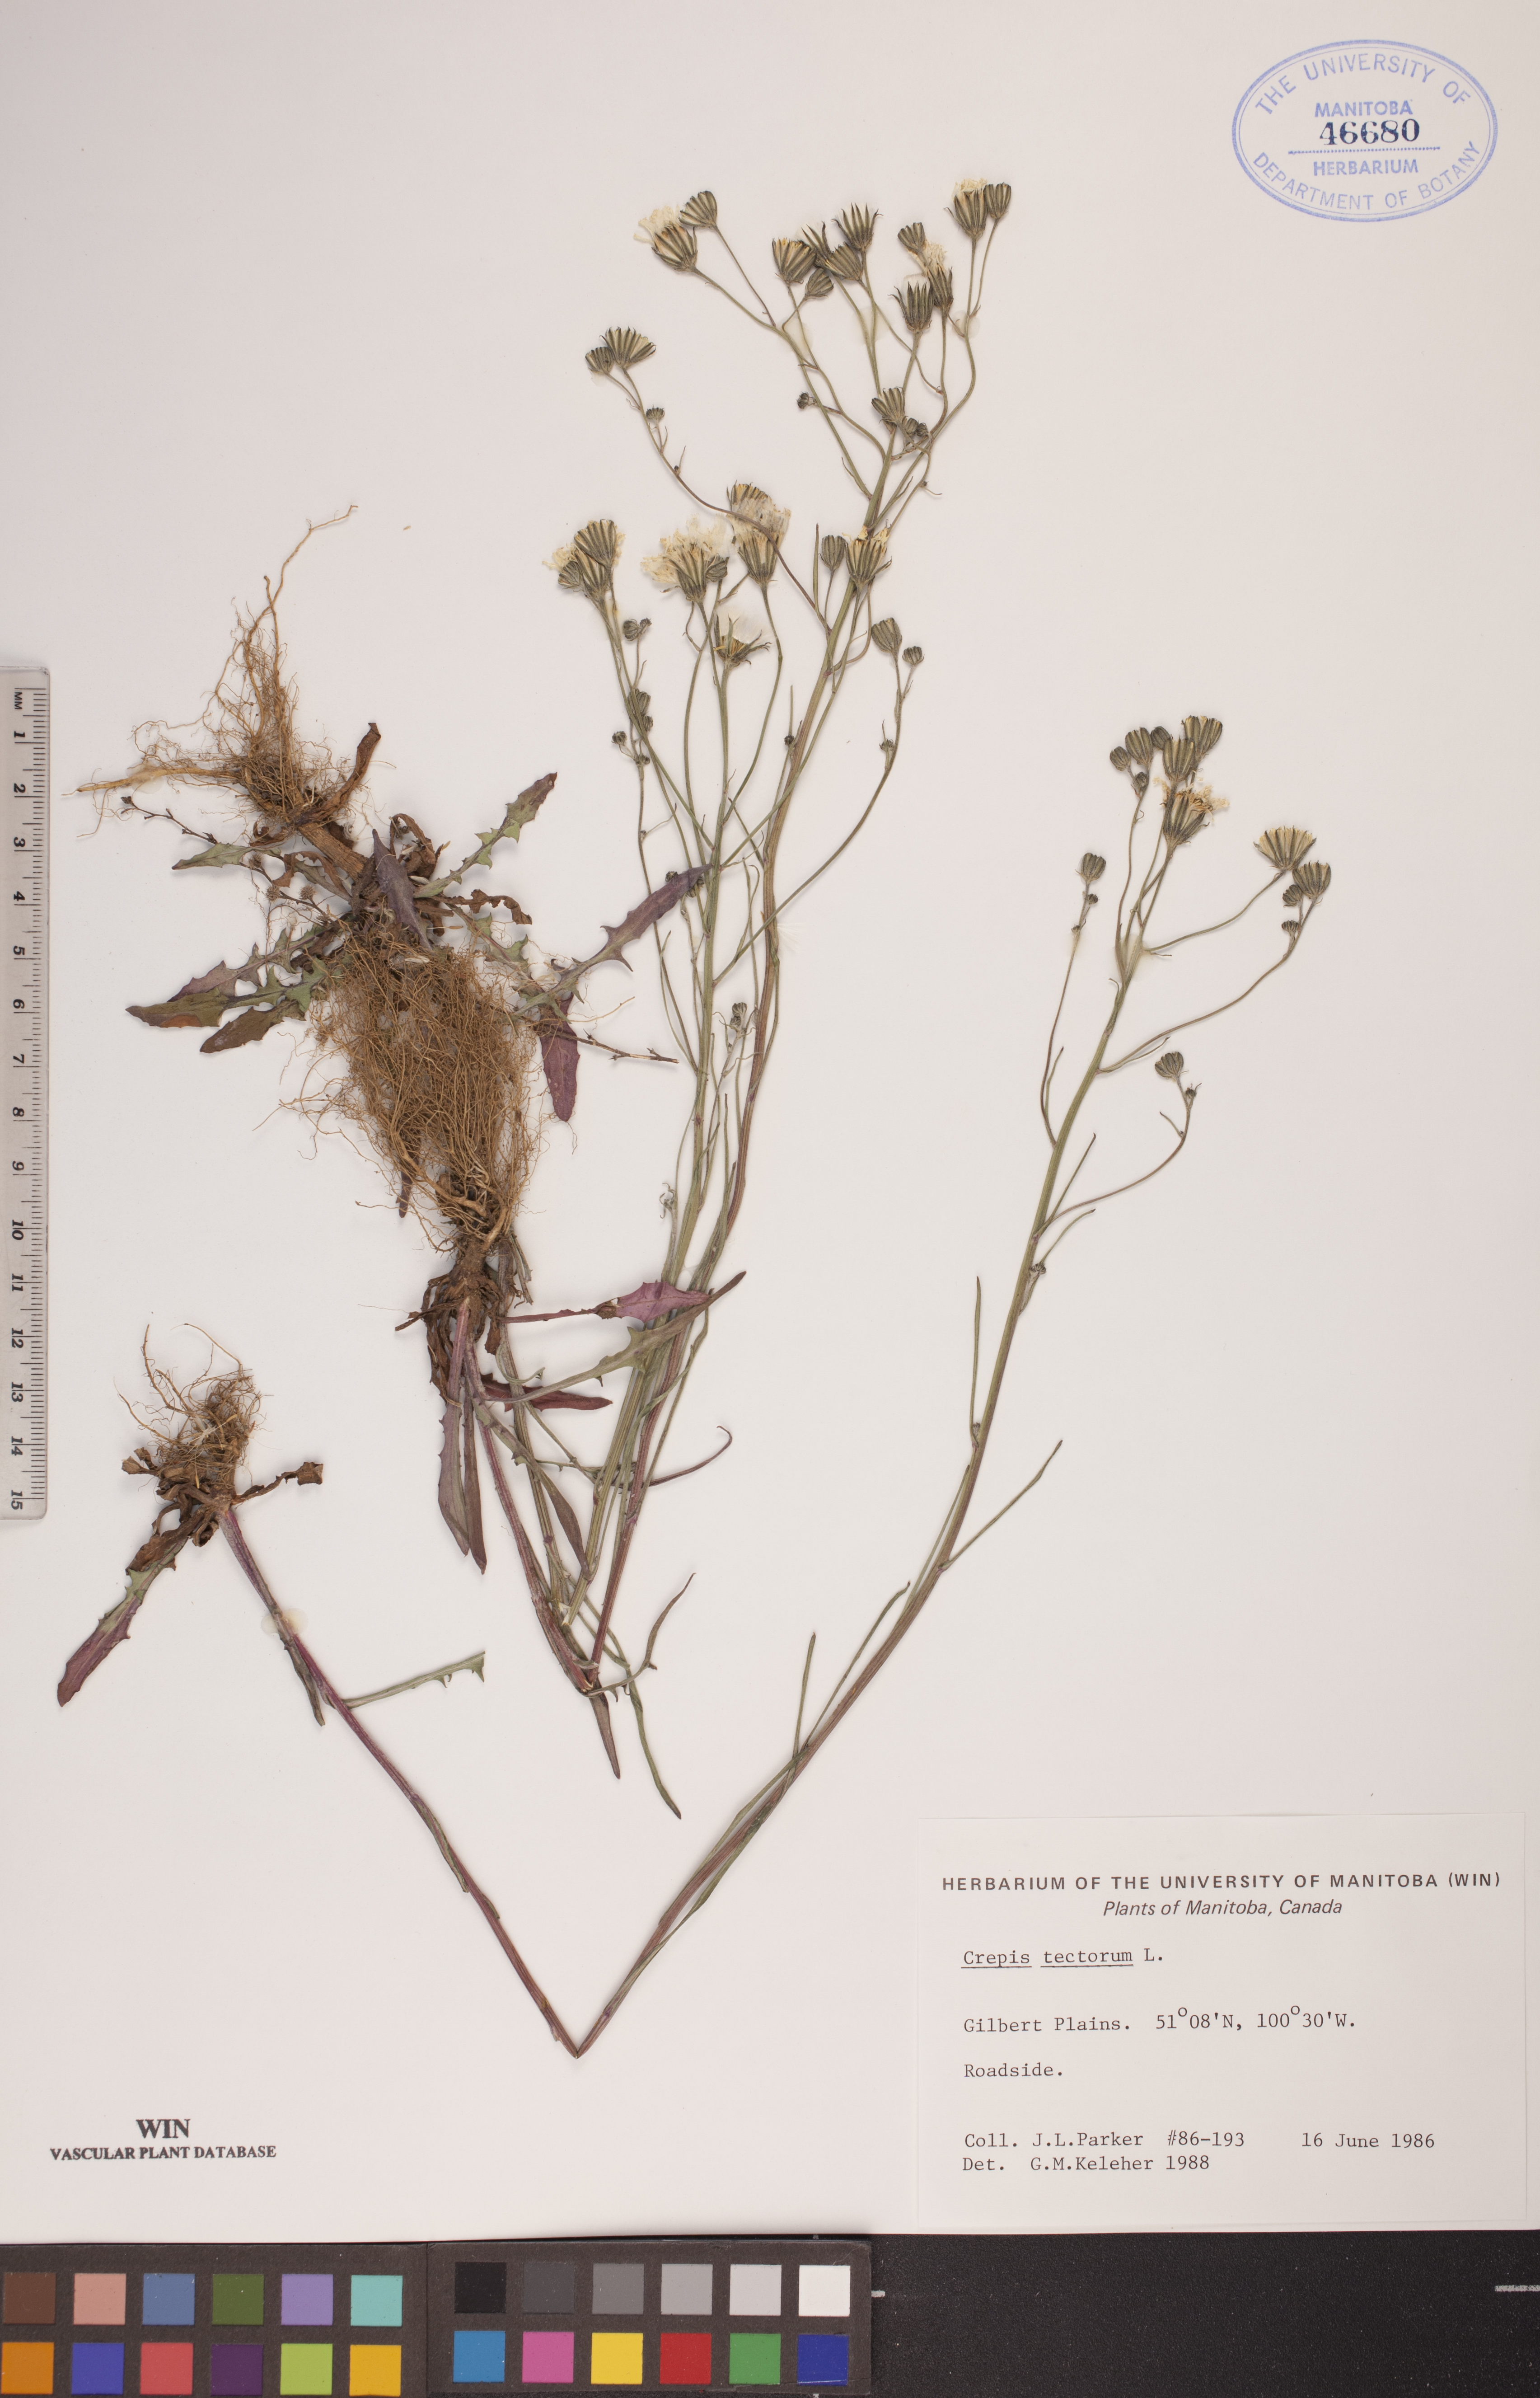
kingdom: Plantae
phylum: Tracheophyta
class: Magnoliopsida
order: Asterales
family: Asteraceae
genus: Crepis
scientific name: Crepis tectorum
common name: Narrow-leaved hawk's-beard
